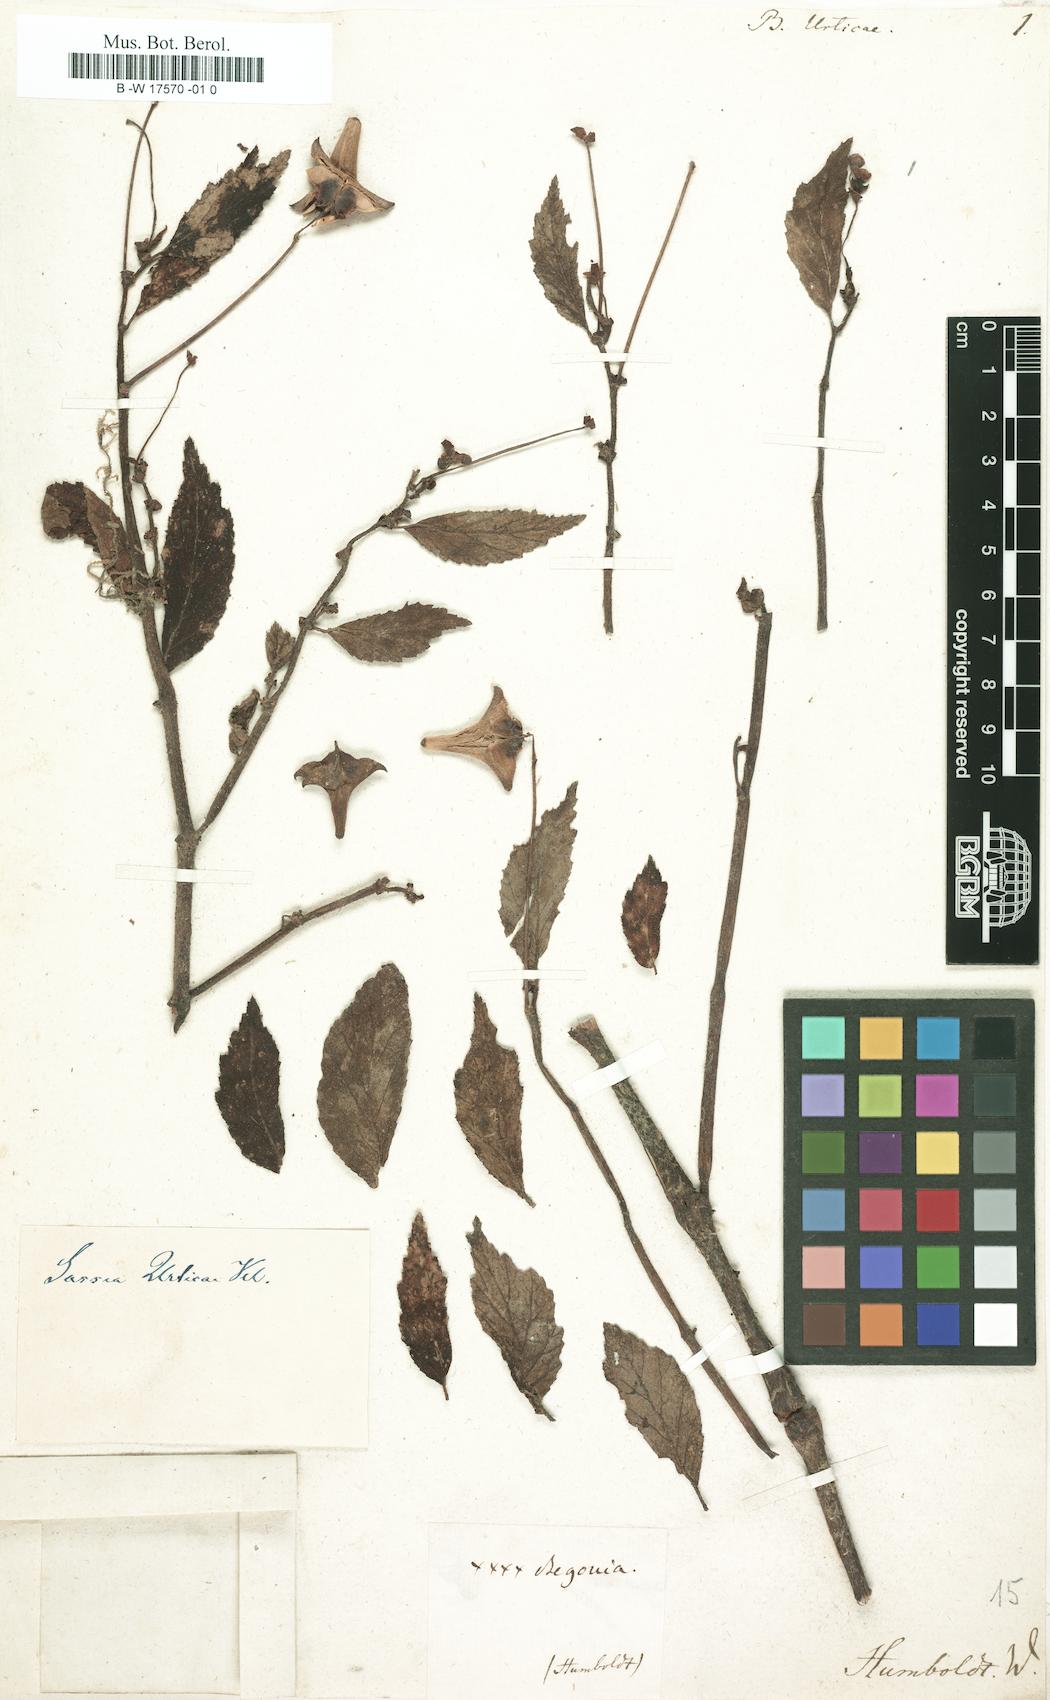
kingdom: Plantae
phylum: Tracheophyta
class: Magnoliopsida
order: Cucurbitales
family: Begoniaceae
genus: Begonia
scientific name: Begonia urticae
